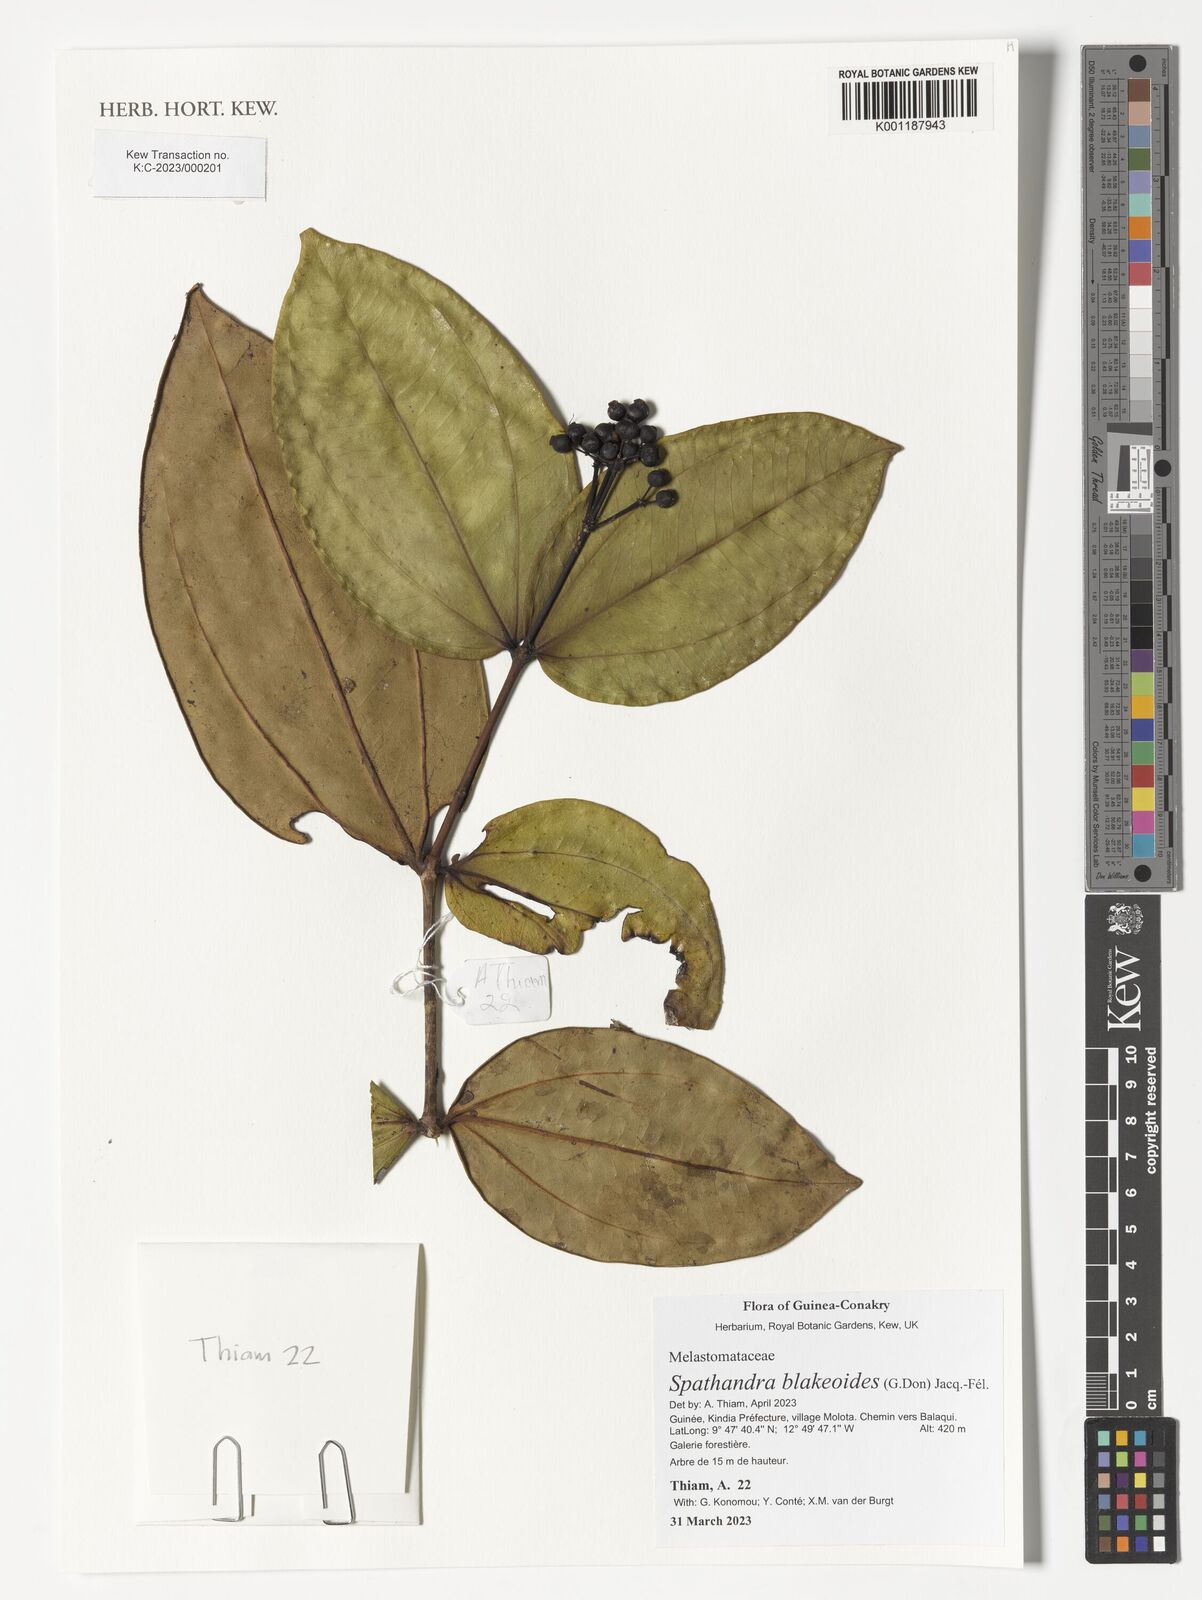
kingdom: Plantae
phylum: Tracheophyta
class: Magnoliopsida
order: Myrtales
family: Melastomataceae
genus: Spathandra
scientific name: Spathandra blakeoides
